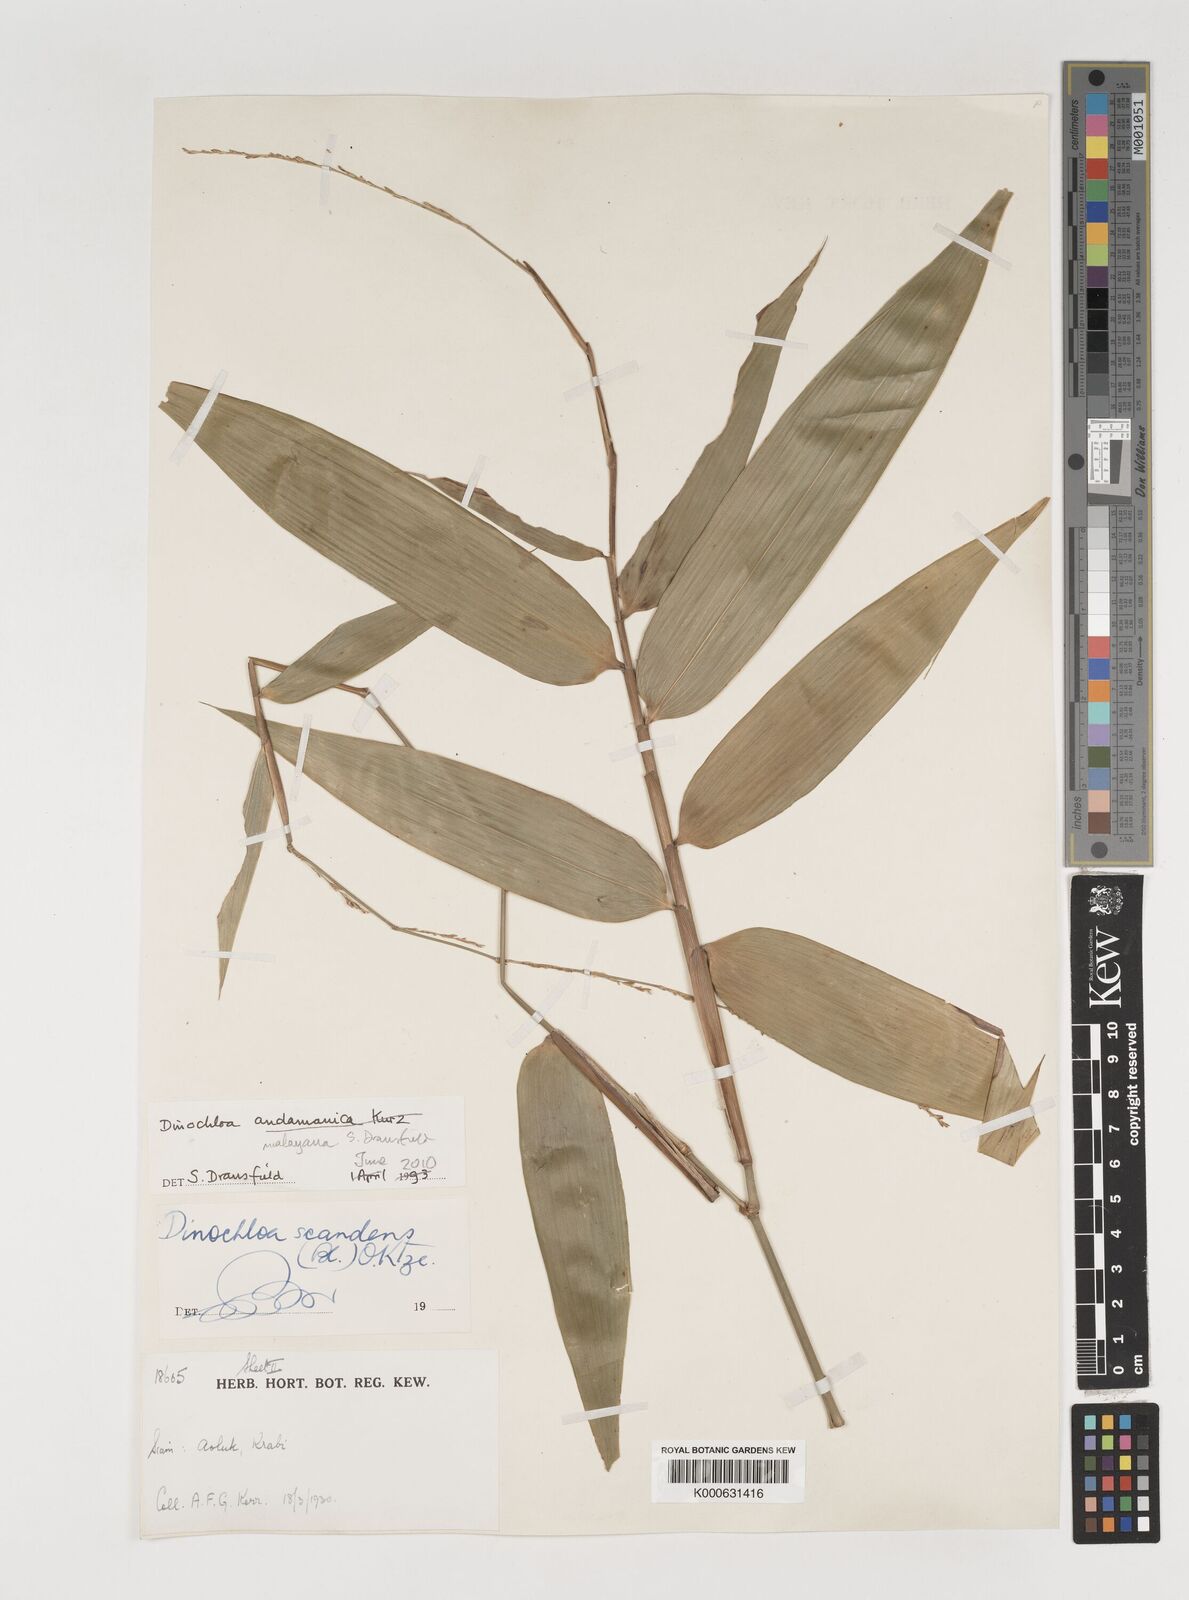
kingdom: Plantae
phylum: Tracheophyta
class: Liliopsida
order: Poales
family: Poaceae
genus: Dinochloa
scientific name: Dinochloa andamanica
